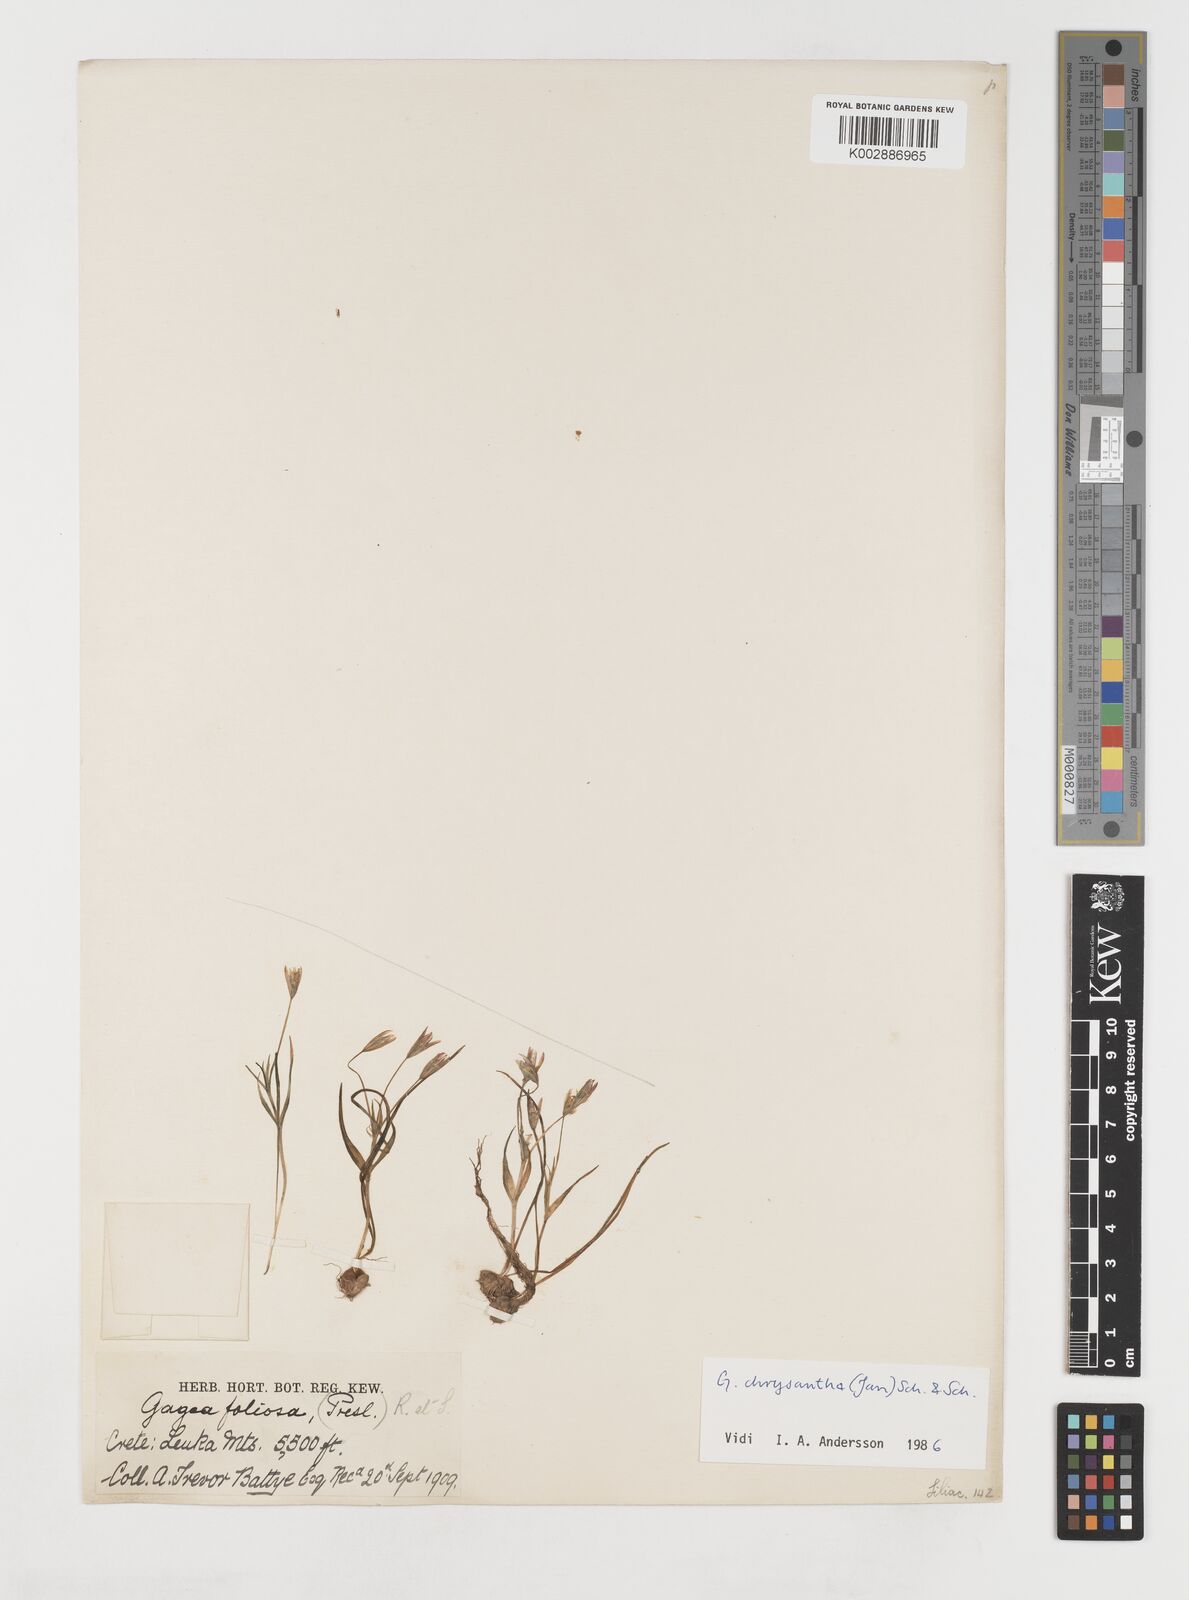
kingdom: Plantae
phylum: Tracheophyta
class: Liliopsida
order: Liliales
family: Liliaceae
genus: Gagea
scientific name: Gagea amblyopetala
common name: Blunt-flowered gagea
